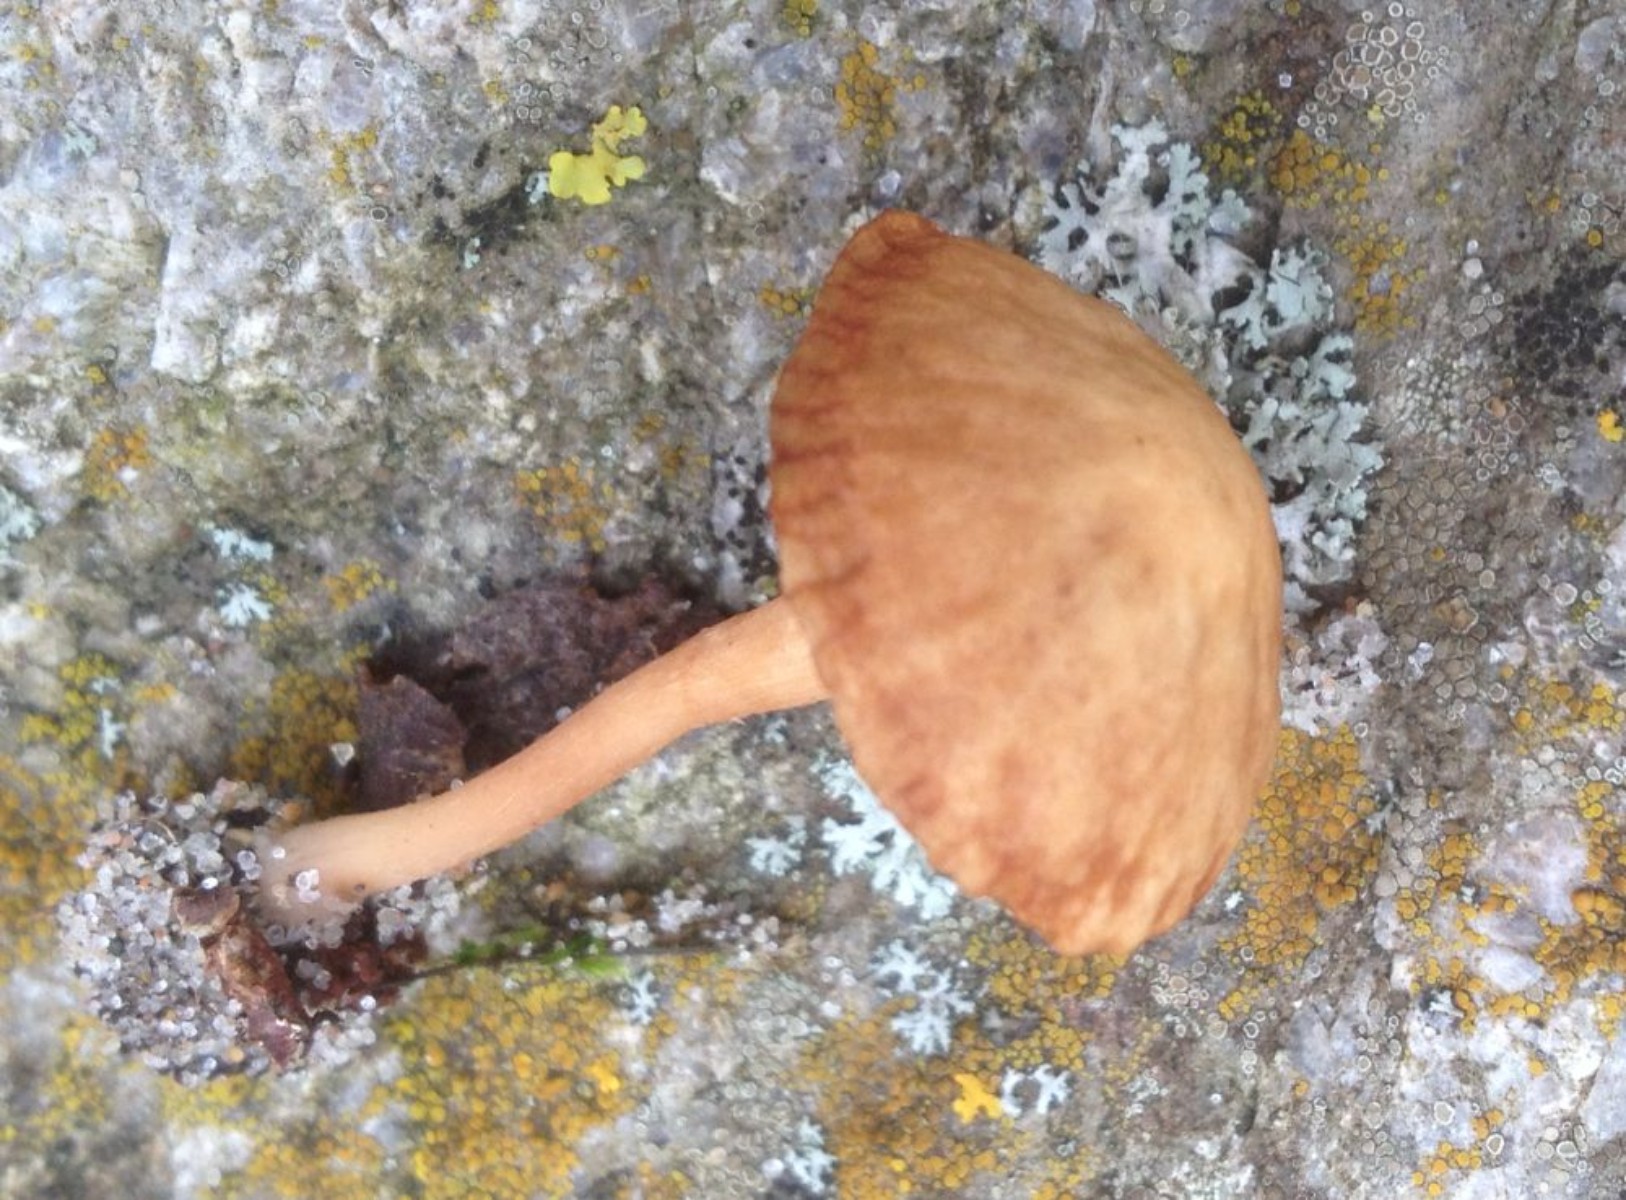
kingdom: Fungi
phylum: Basidiomycota
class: Agaricomycetes
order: Agaricales
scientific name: Agaricales
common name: champignonordenen
